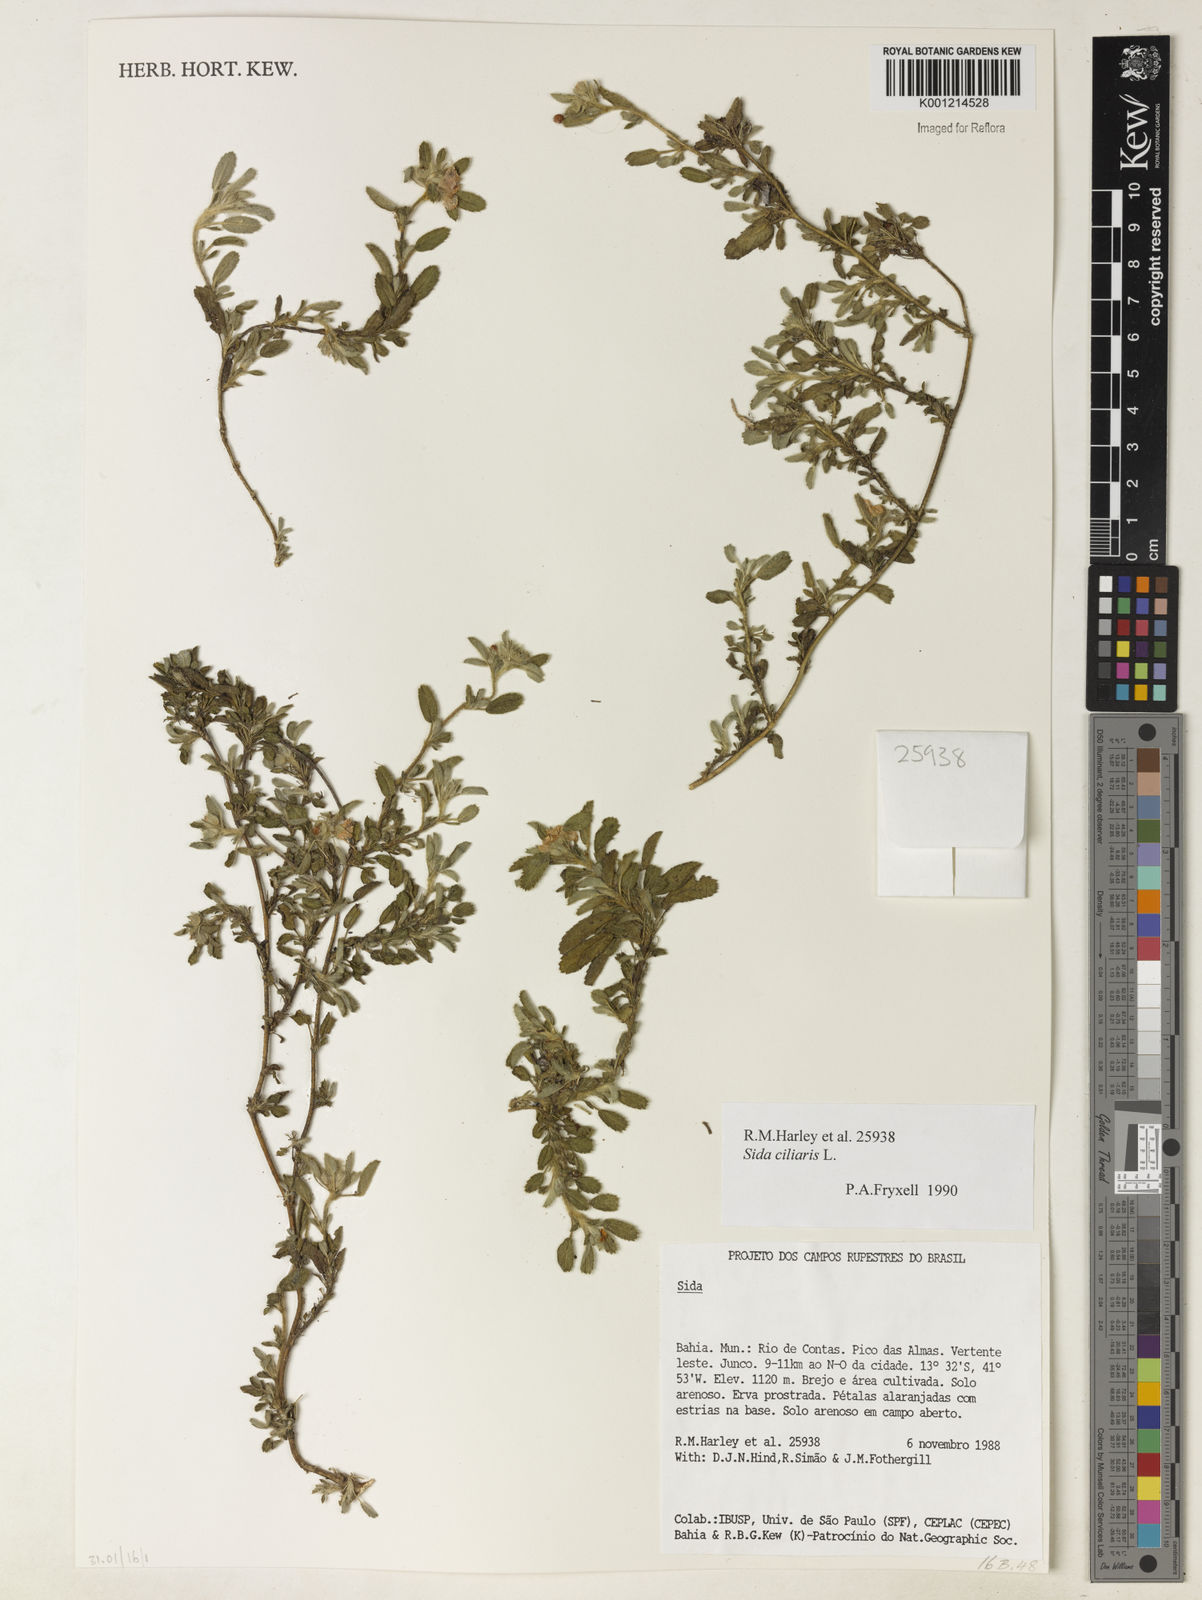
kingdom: Plantae
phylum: Tracheophyta
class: Magnoliopsida
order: Malvales
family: Malvaceae
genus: Sida
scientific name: Sida ciliaris
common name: Bracted fanpetals
